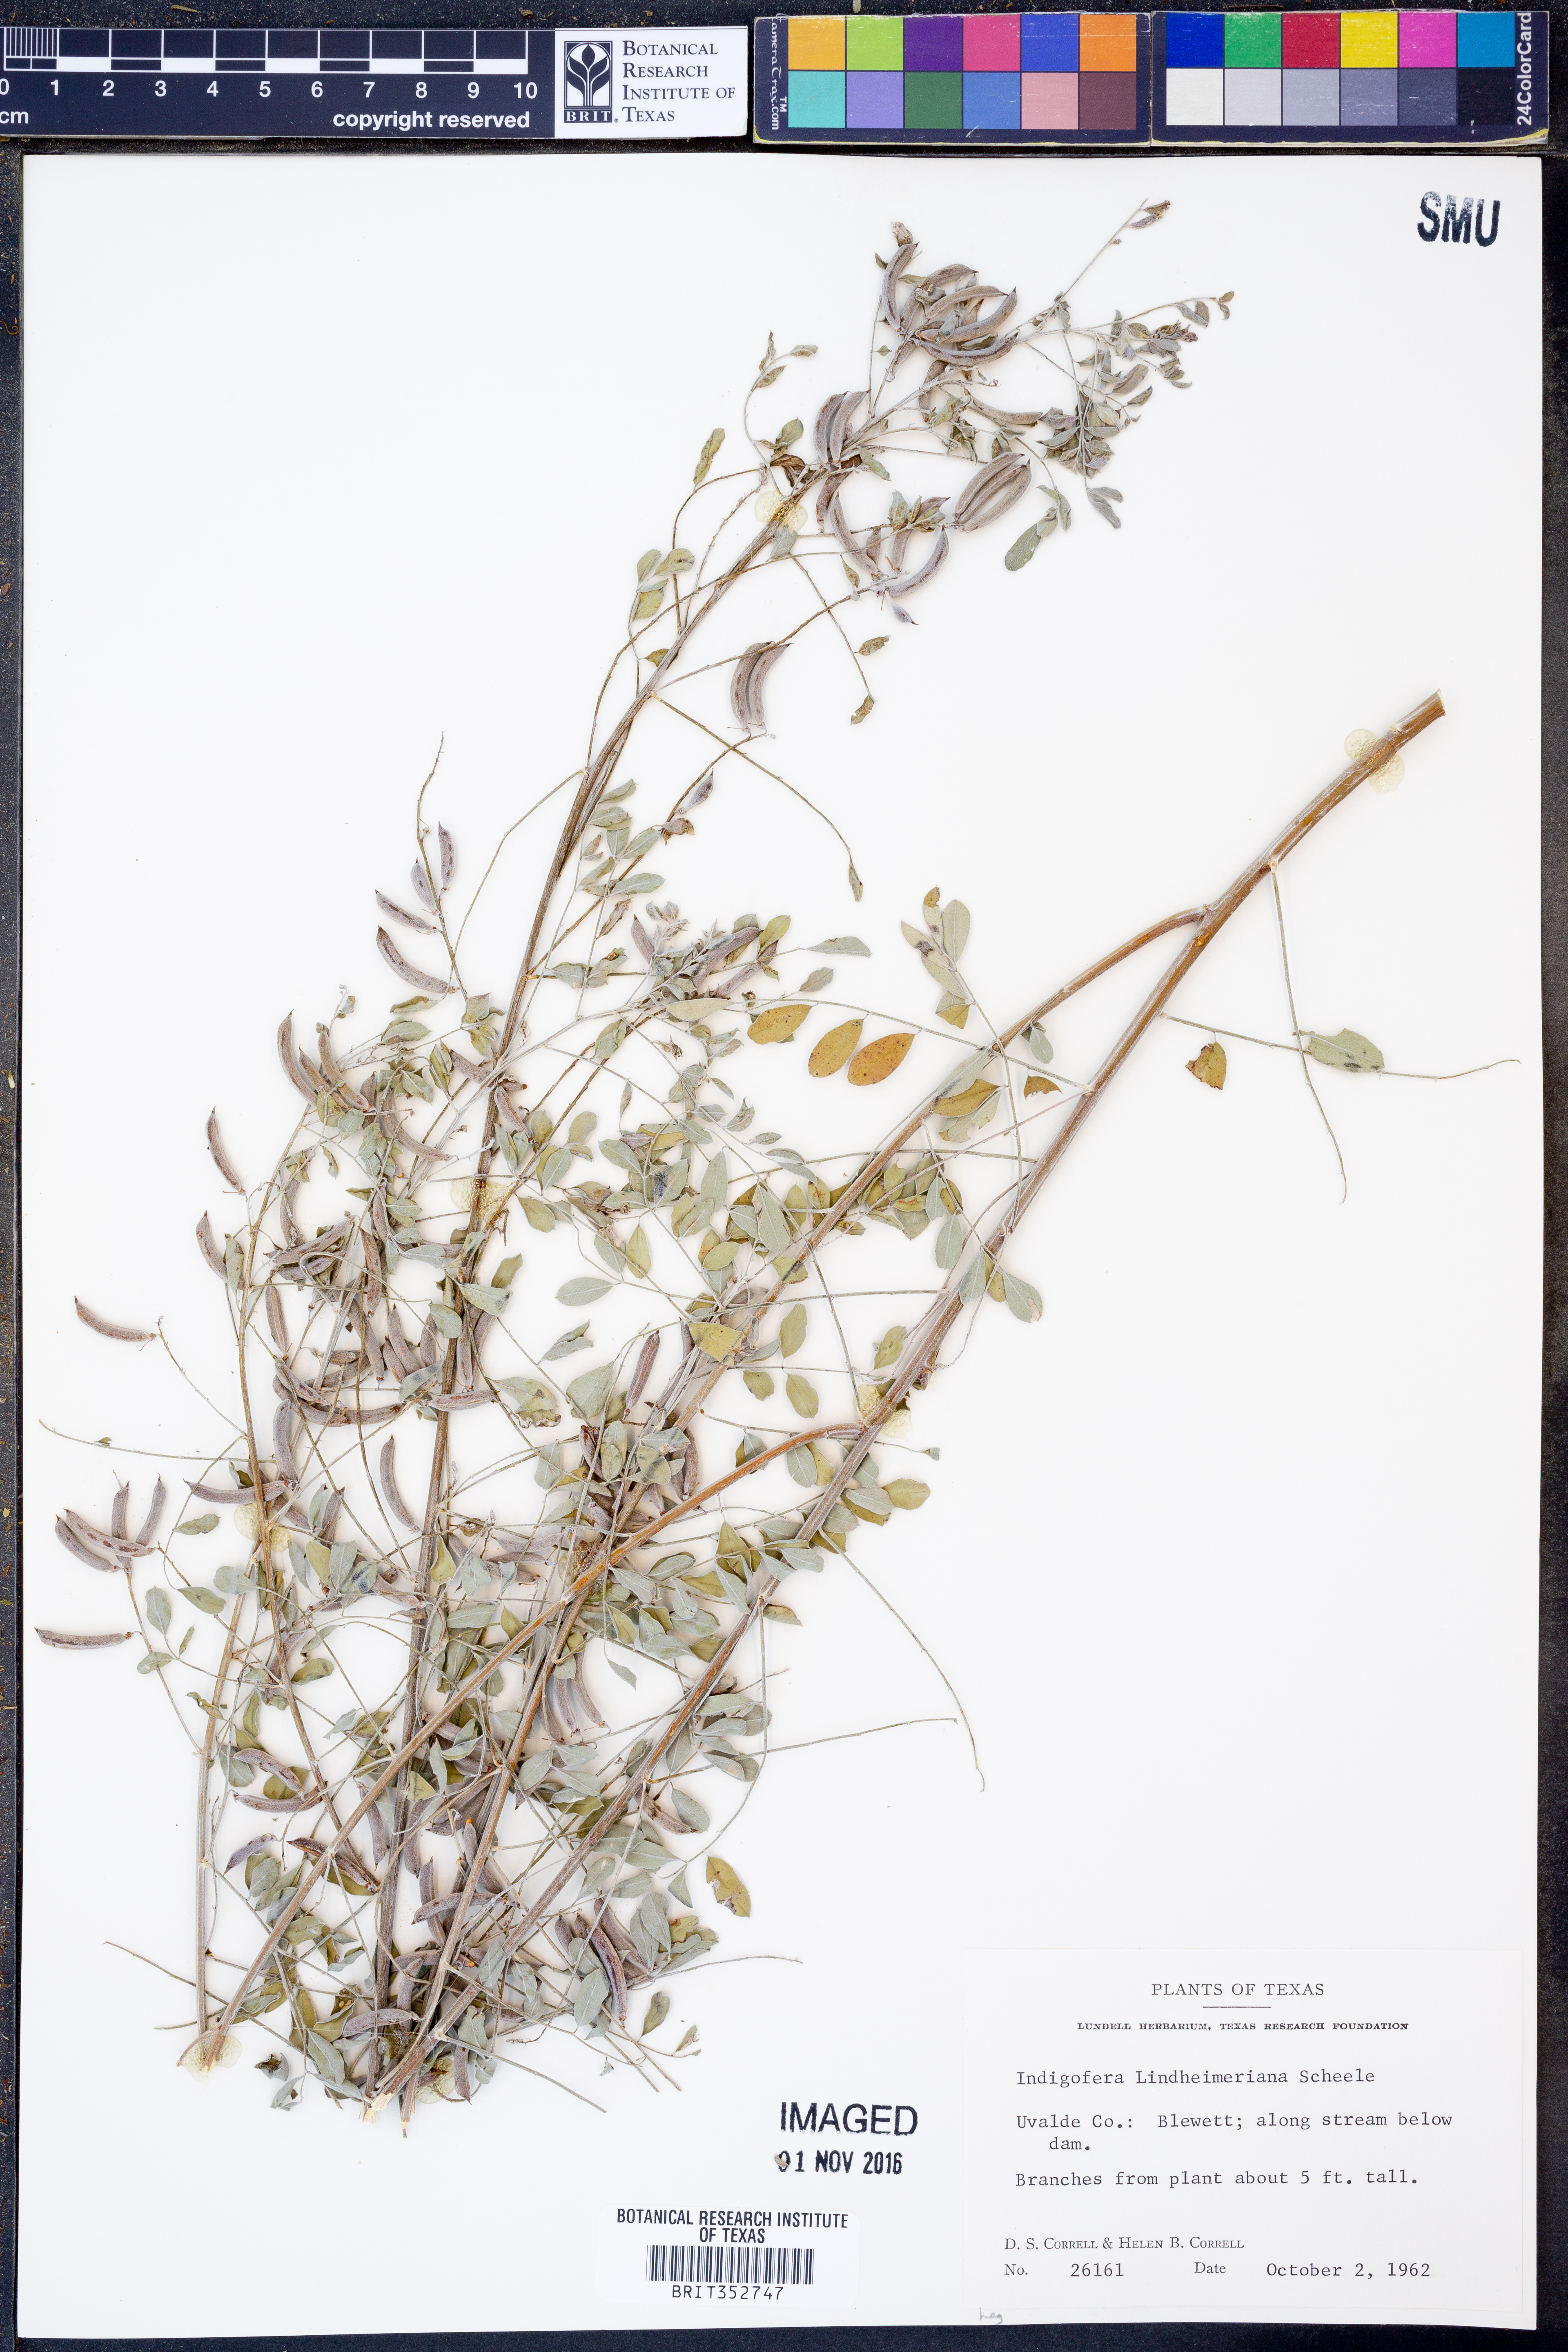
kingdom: Plantae
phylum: Tracheophyta
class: Magnoliopsida
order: Fabales
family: Fabaceae
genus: Indigofera
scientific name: Indigofera lindheimeriana
